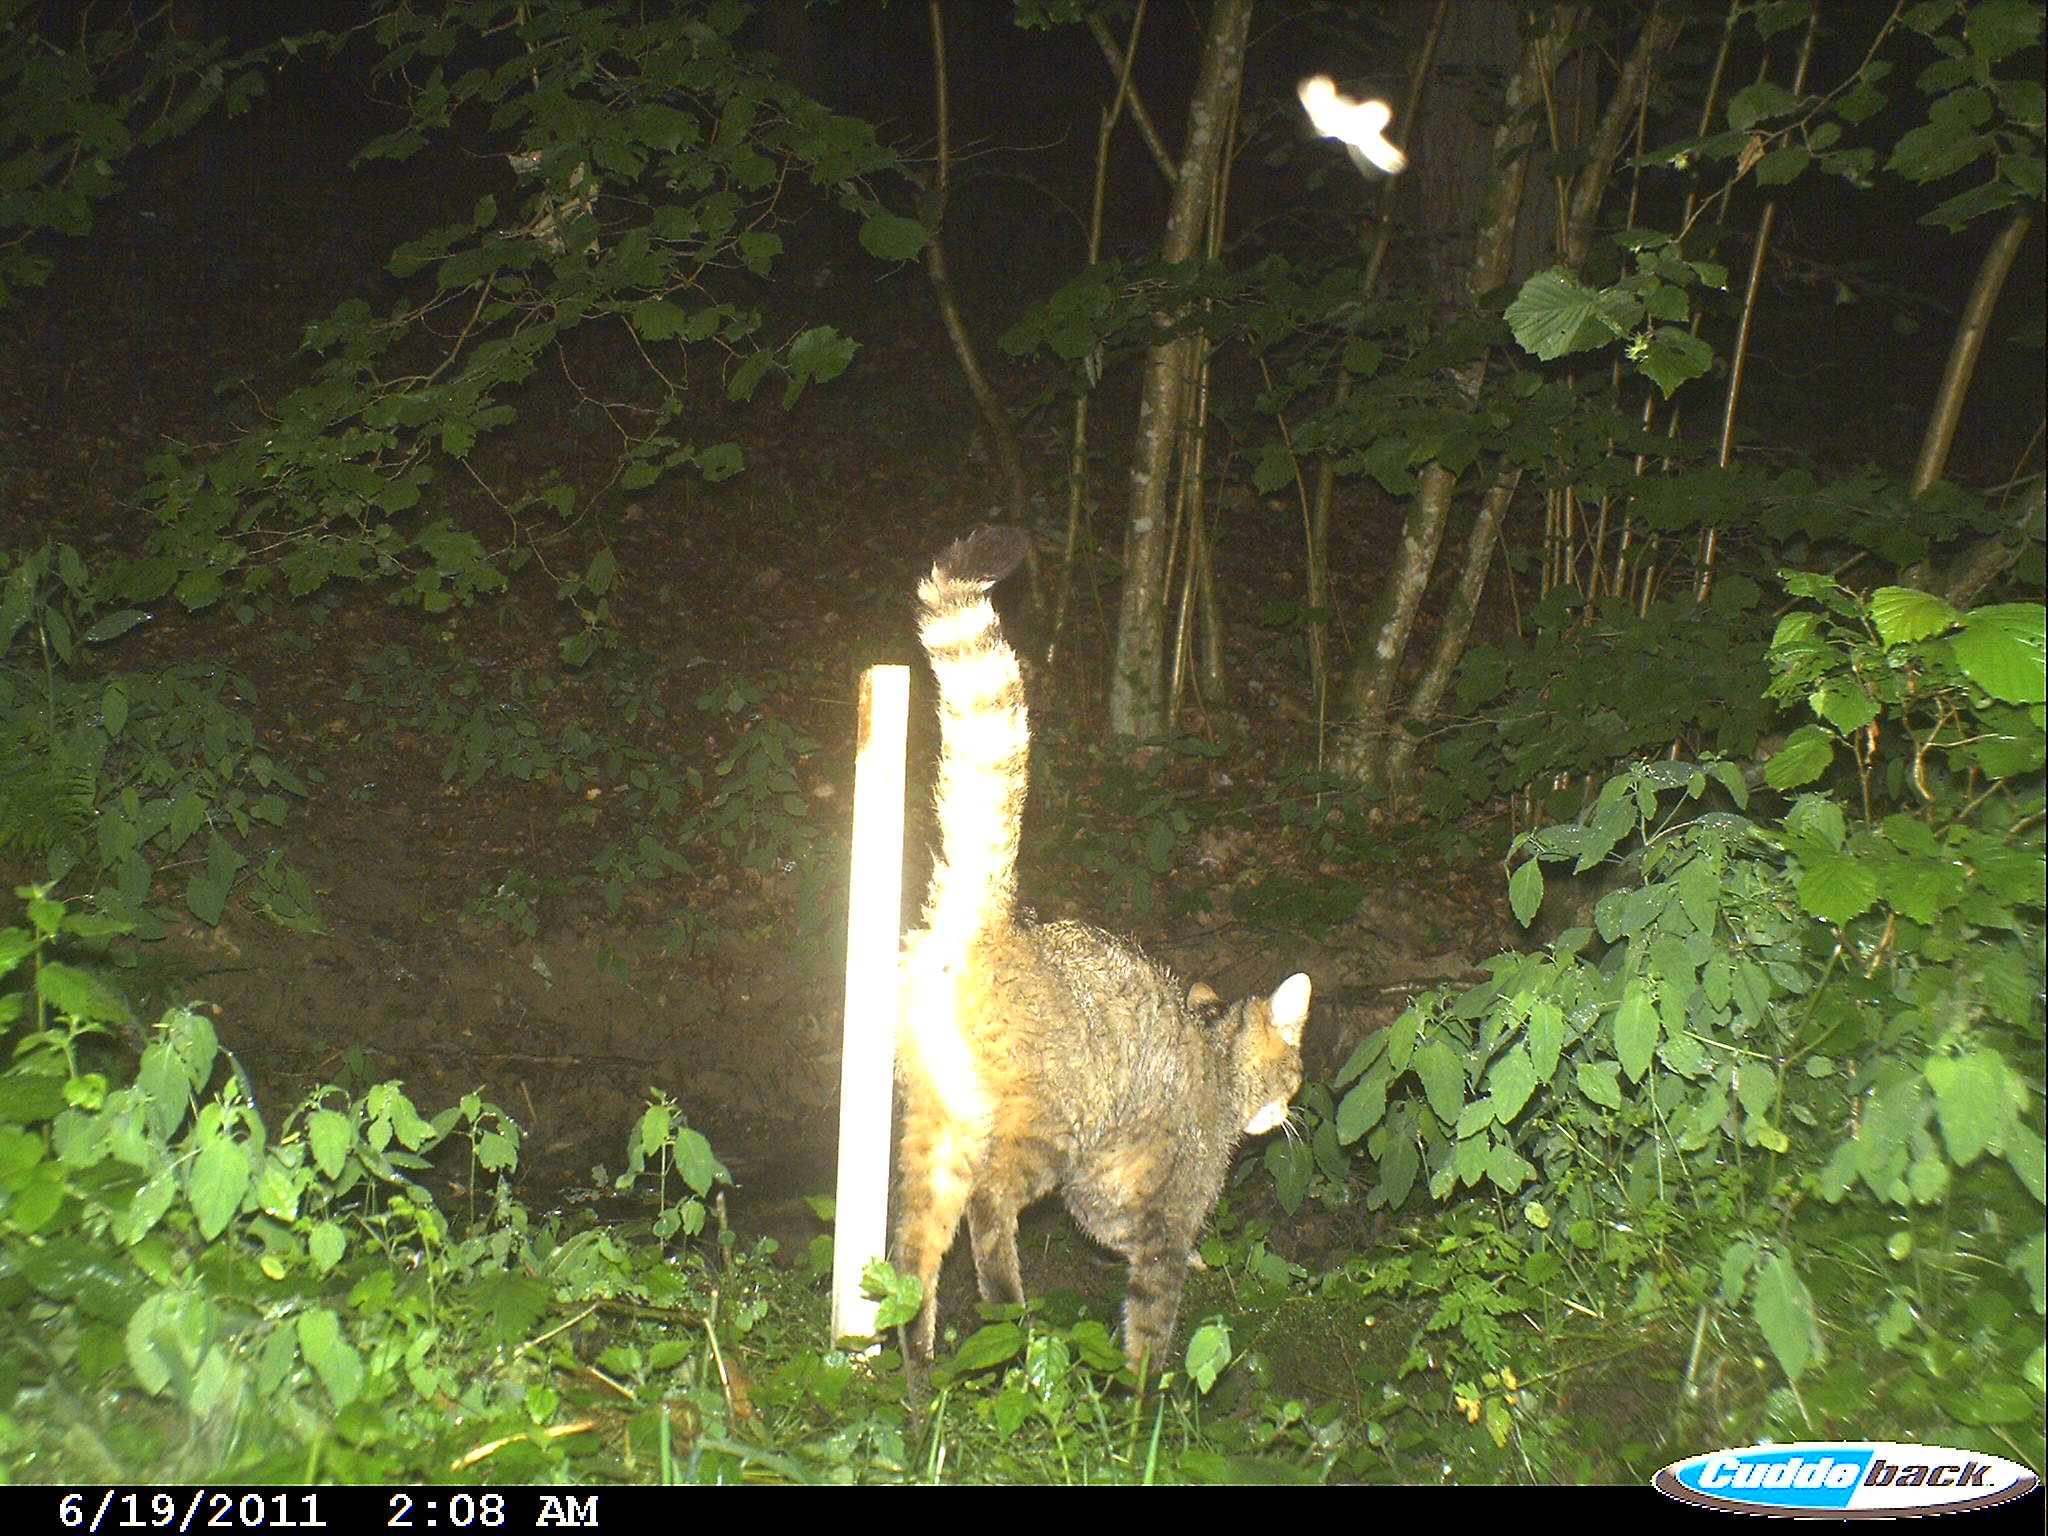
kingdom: Animalia
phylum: Chordata
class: Mammalia
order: Carnivora
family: Felidae
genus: Felis
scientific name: Felis silvestris
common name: Wildcat
